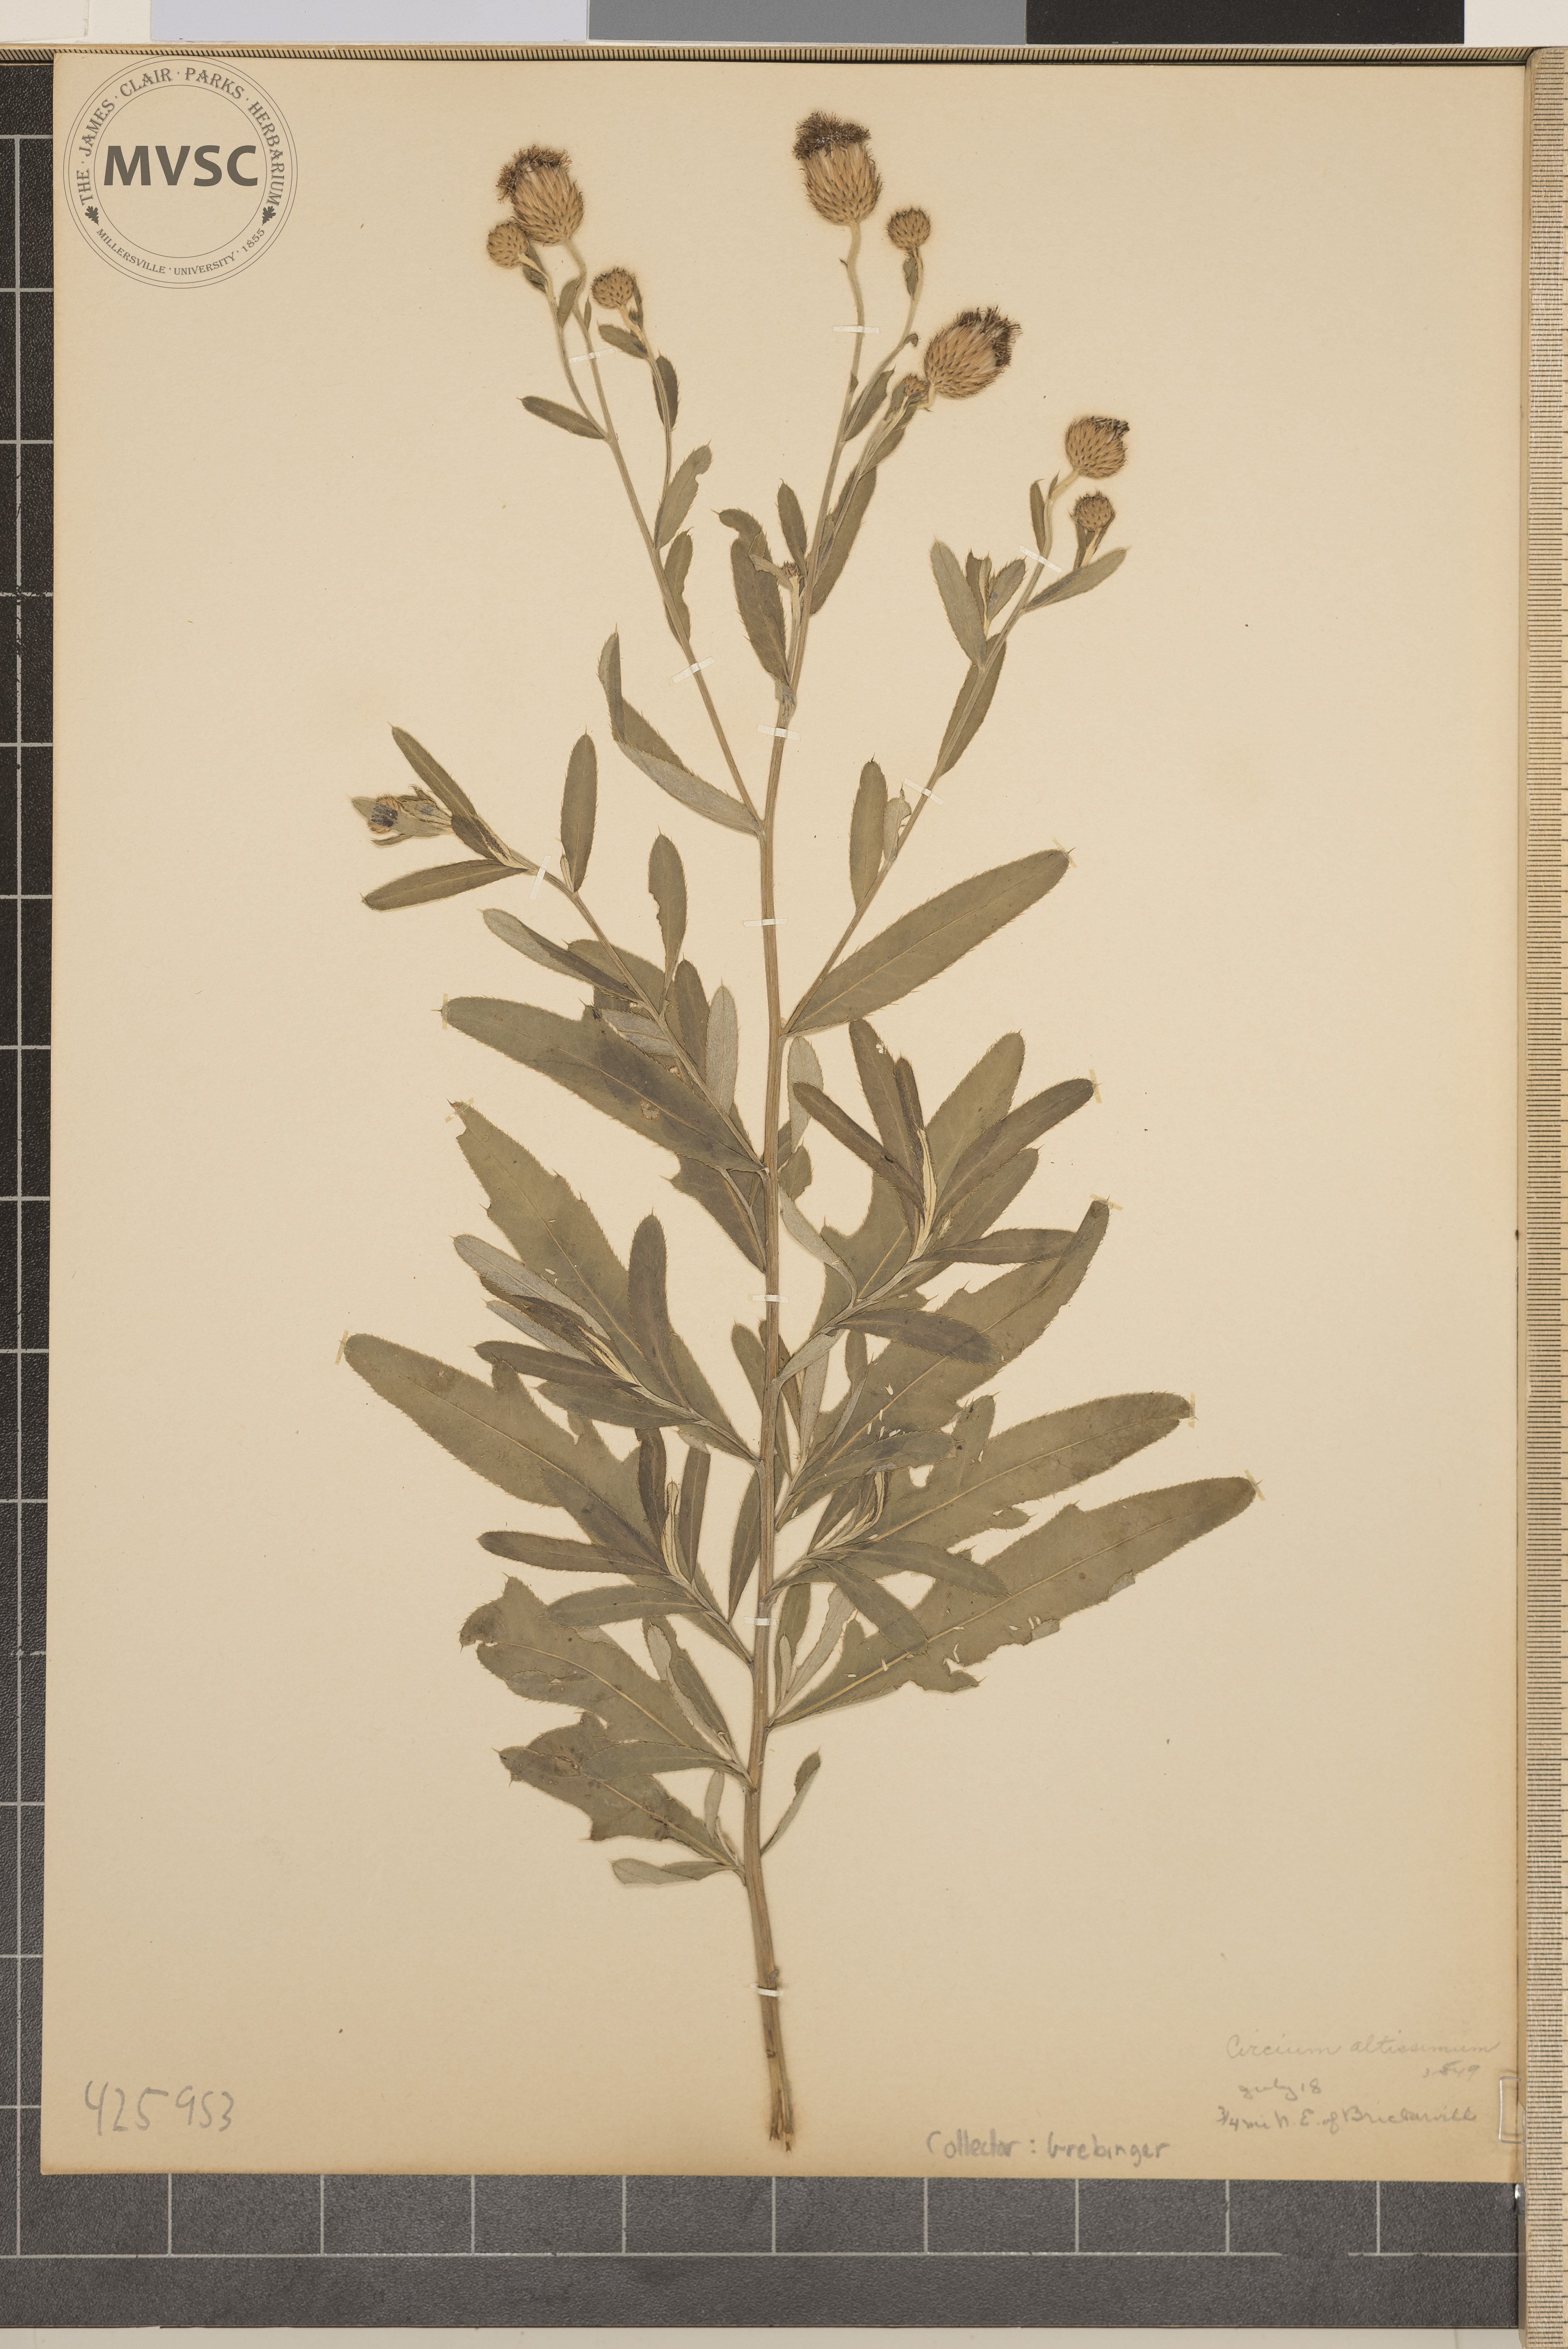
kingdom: Plantae
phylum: Tracheophyta
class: Magnoliopsida
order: Asterales
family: Asteraceae
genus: Cirsium
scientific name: Cirsium altissimum
